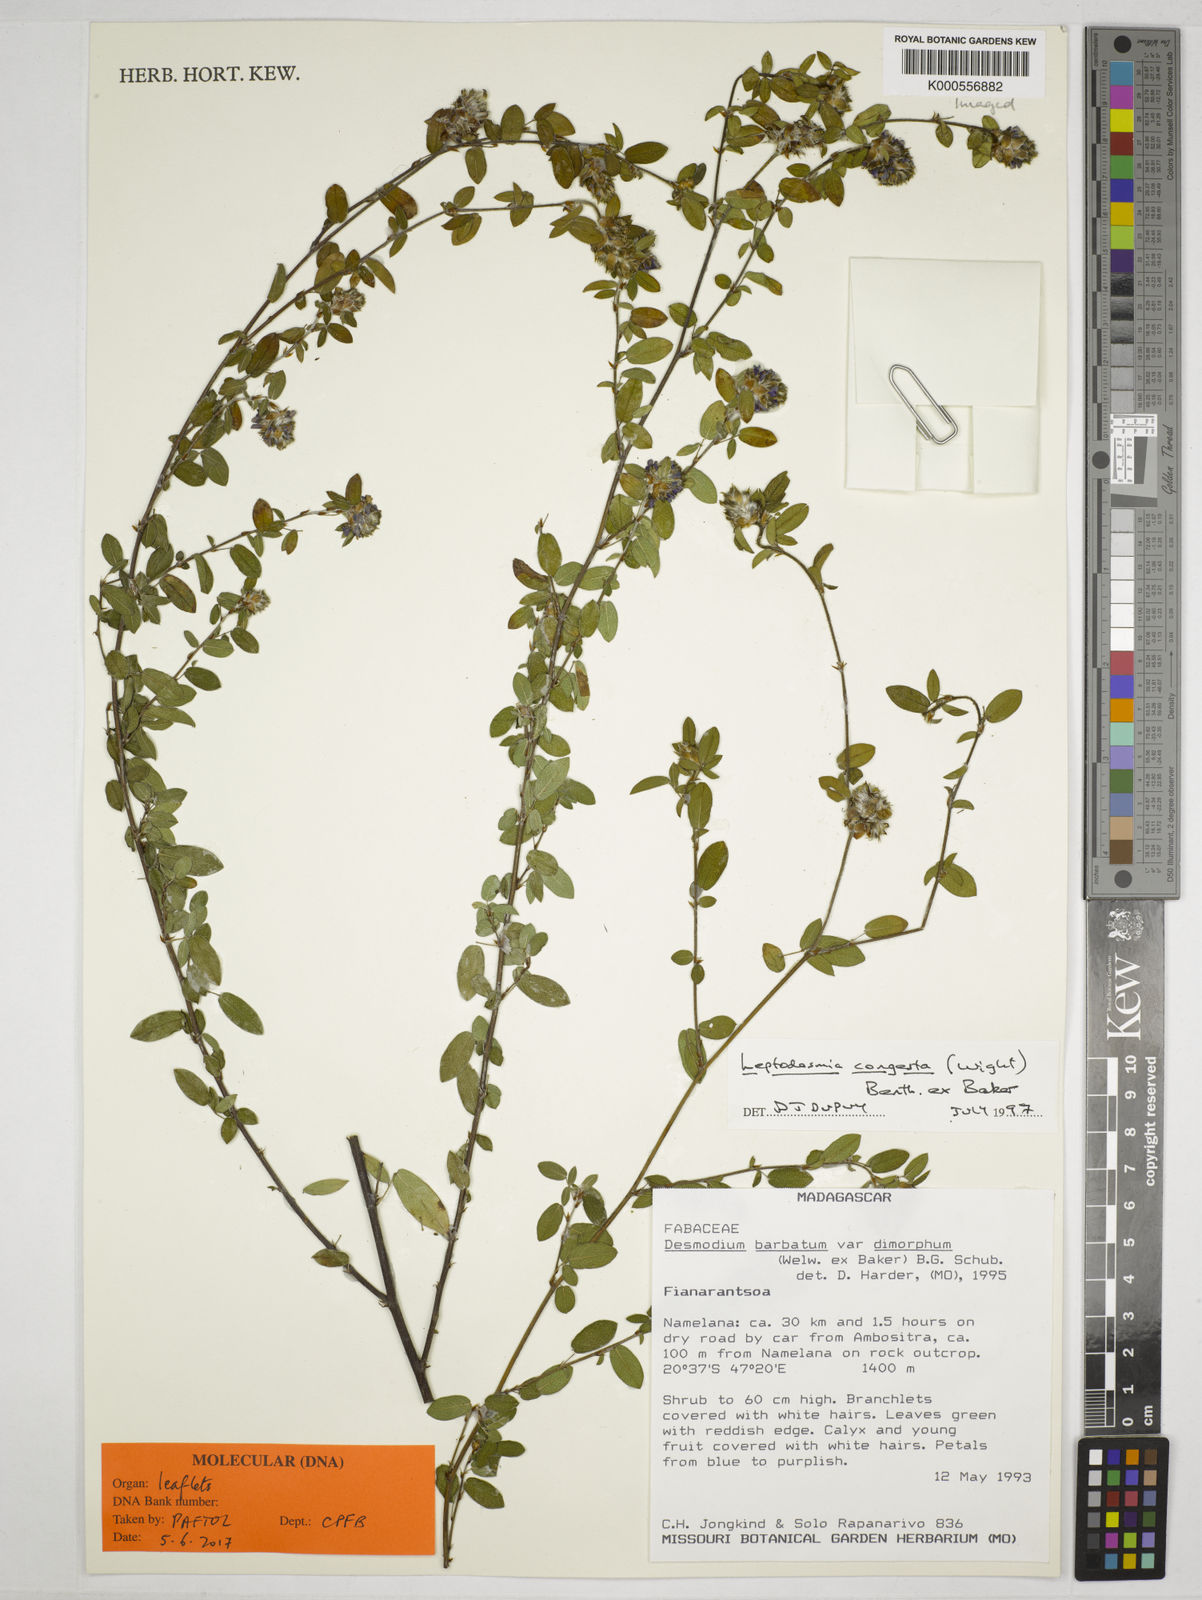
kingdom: Plantae
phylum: Tracheophyta
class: Magnoliopsida
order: Fabales
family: Fabaceae
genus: Leptodesmia
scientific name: Leptodesmia congesta
